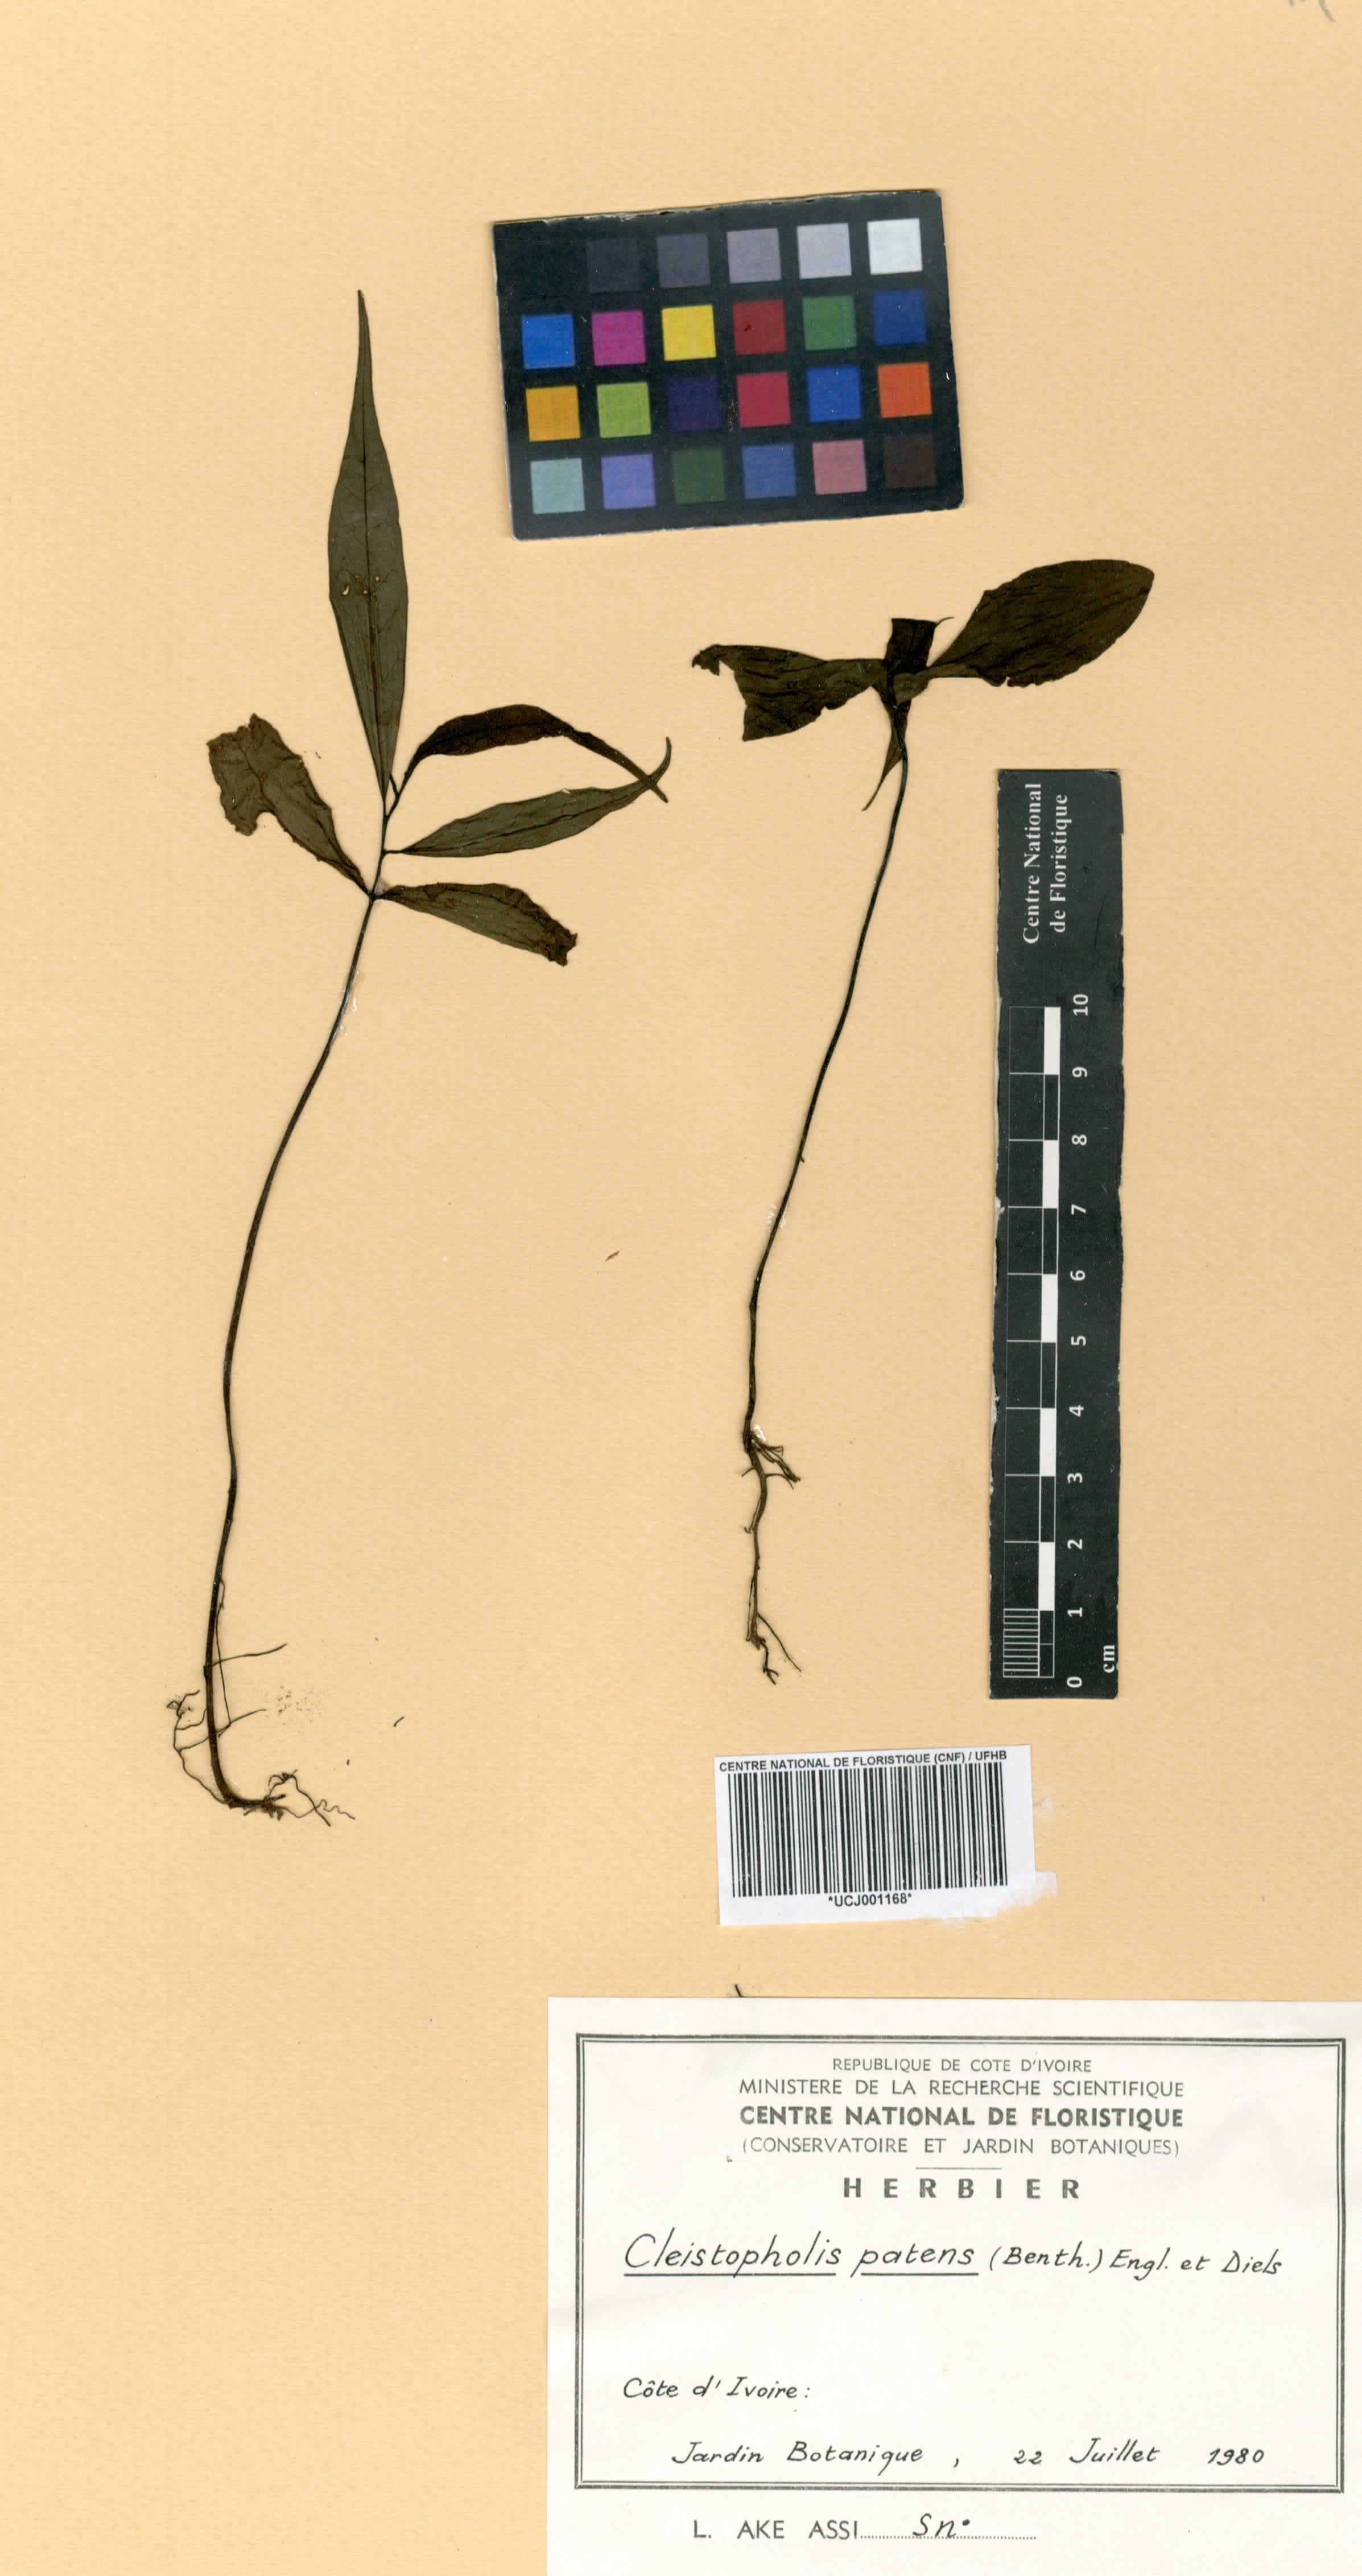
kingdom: Plantae
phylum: Tracheophyta
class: Magnoliopsida
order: Magnoliales
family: Annonaceae
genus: Cleistopholis
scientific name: Cleistopholis patens
